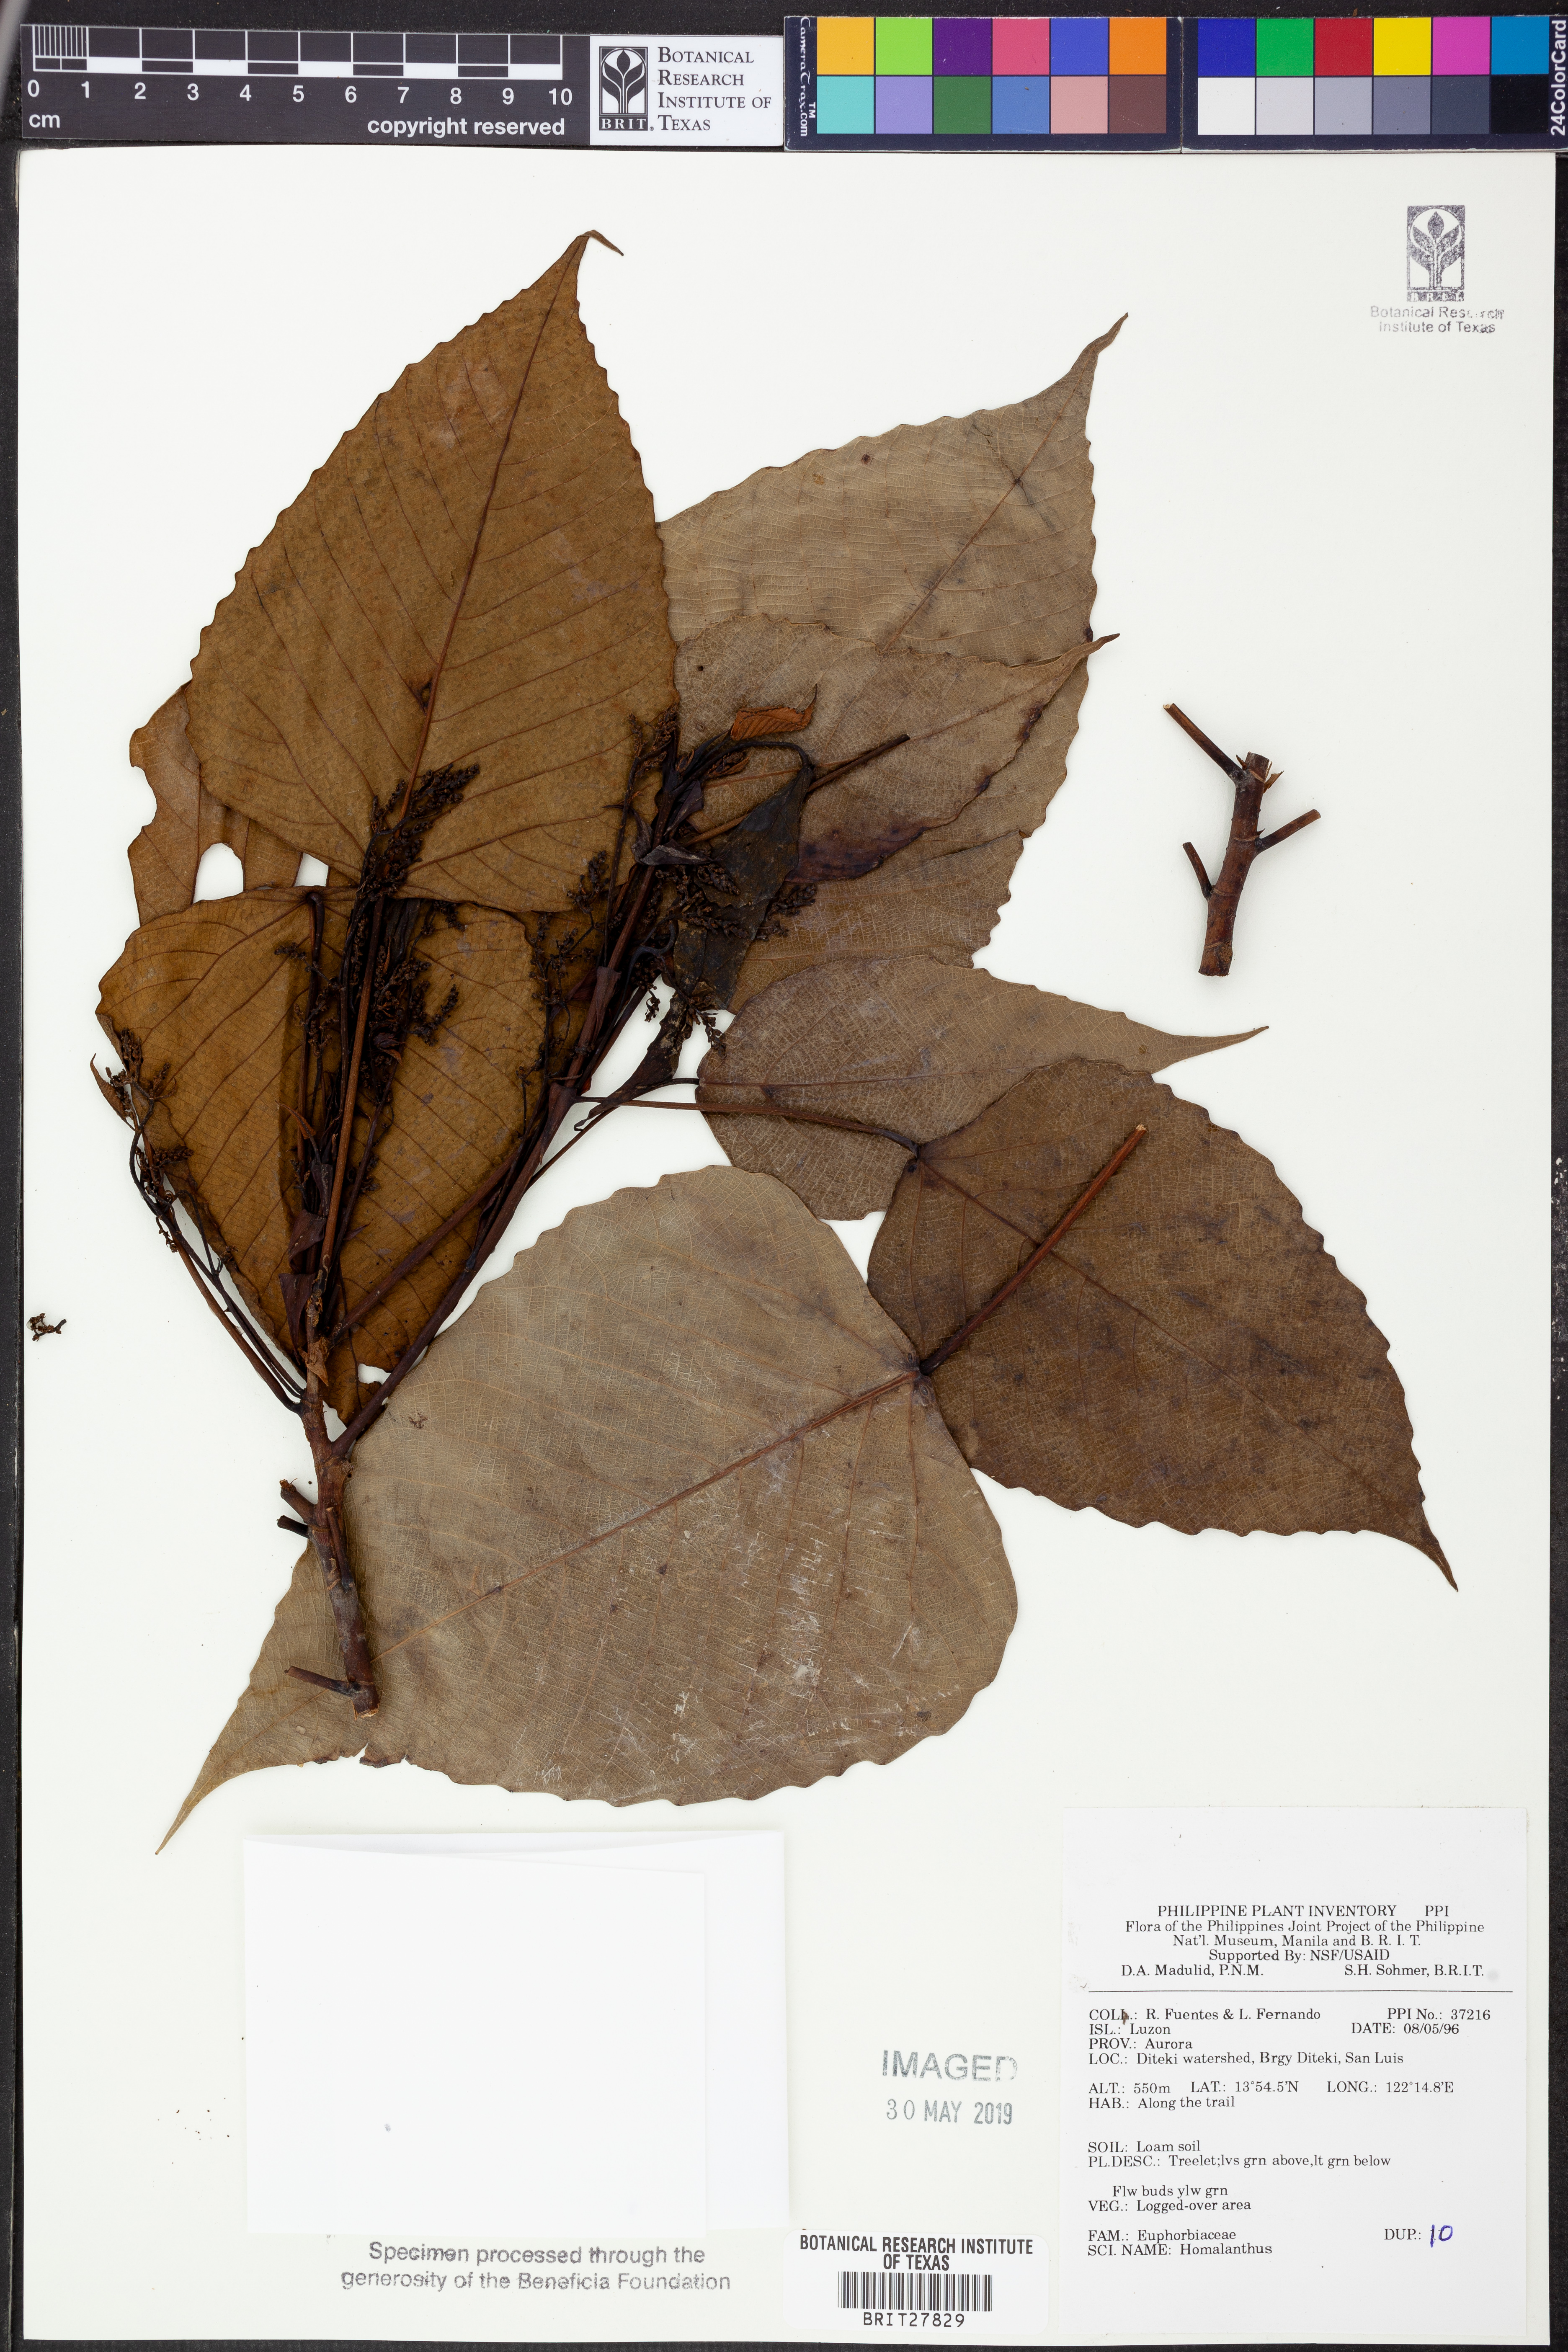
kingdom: Plantae
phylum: Tracheophyta
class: Magnoliopsida
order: Malpighiales
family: Euphorbiaceae
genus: Homalanthus
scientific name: Homalanthus
